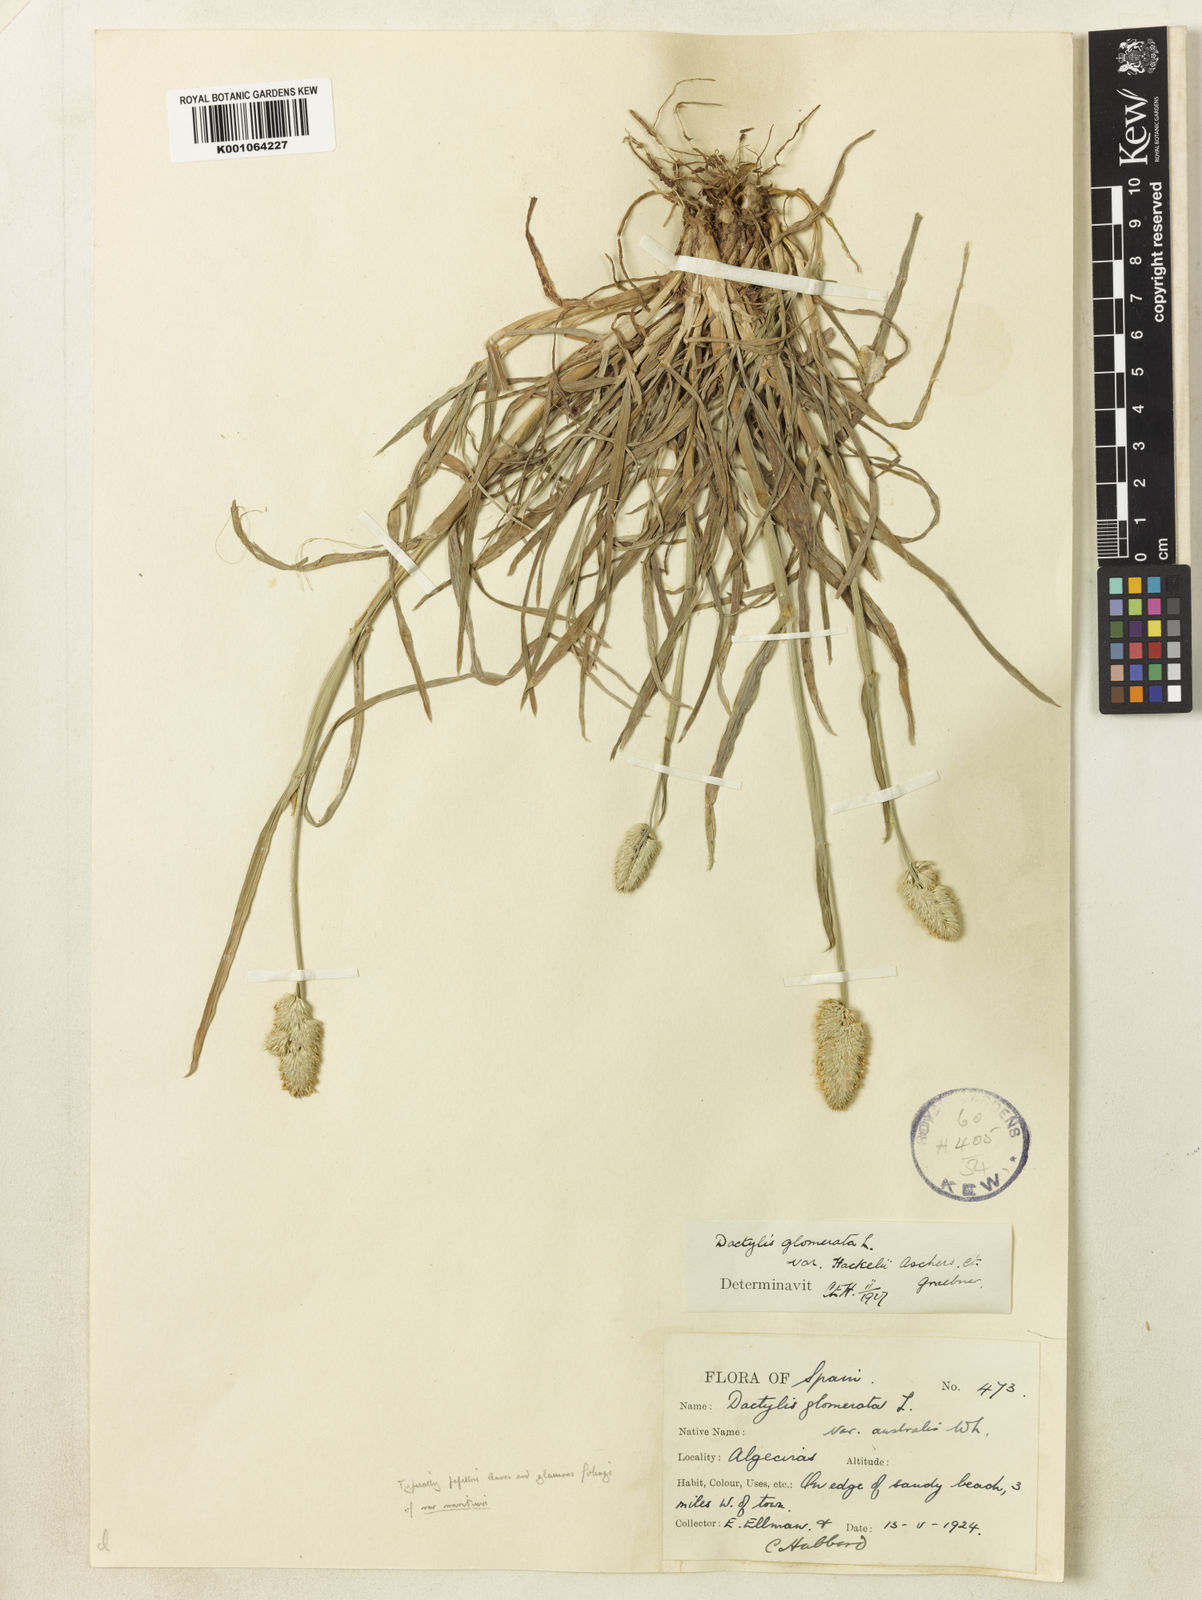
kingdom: Plantae
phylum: Tracheophyta
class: Liliopsida
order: Poales
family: Poaceae
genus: Dactylis
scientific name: Dactylis glomerata
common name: Orchardgrass
